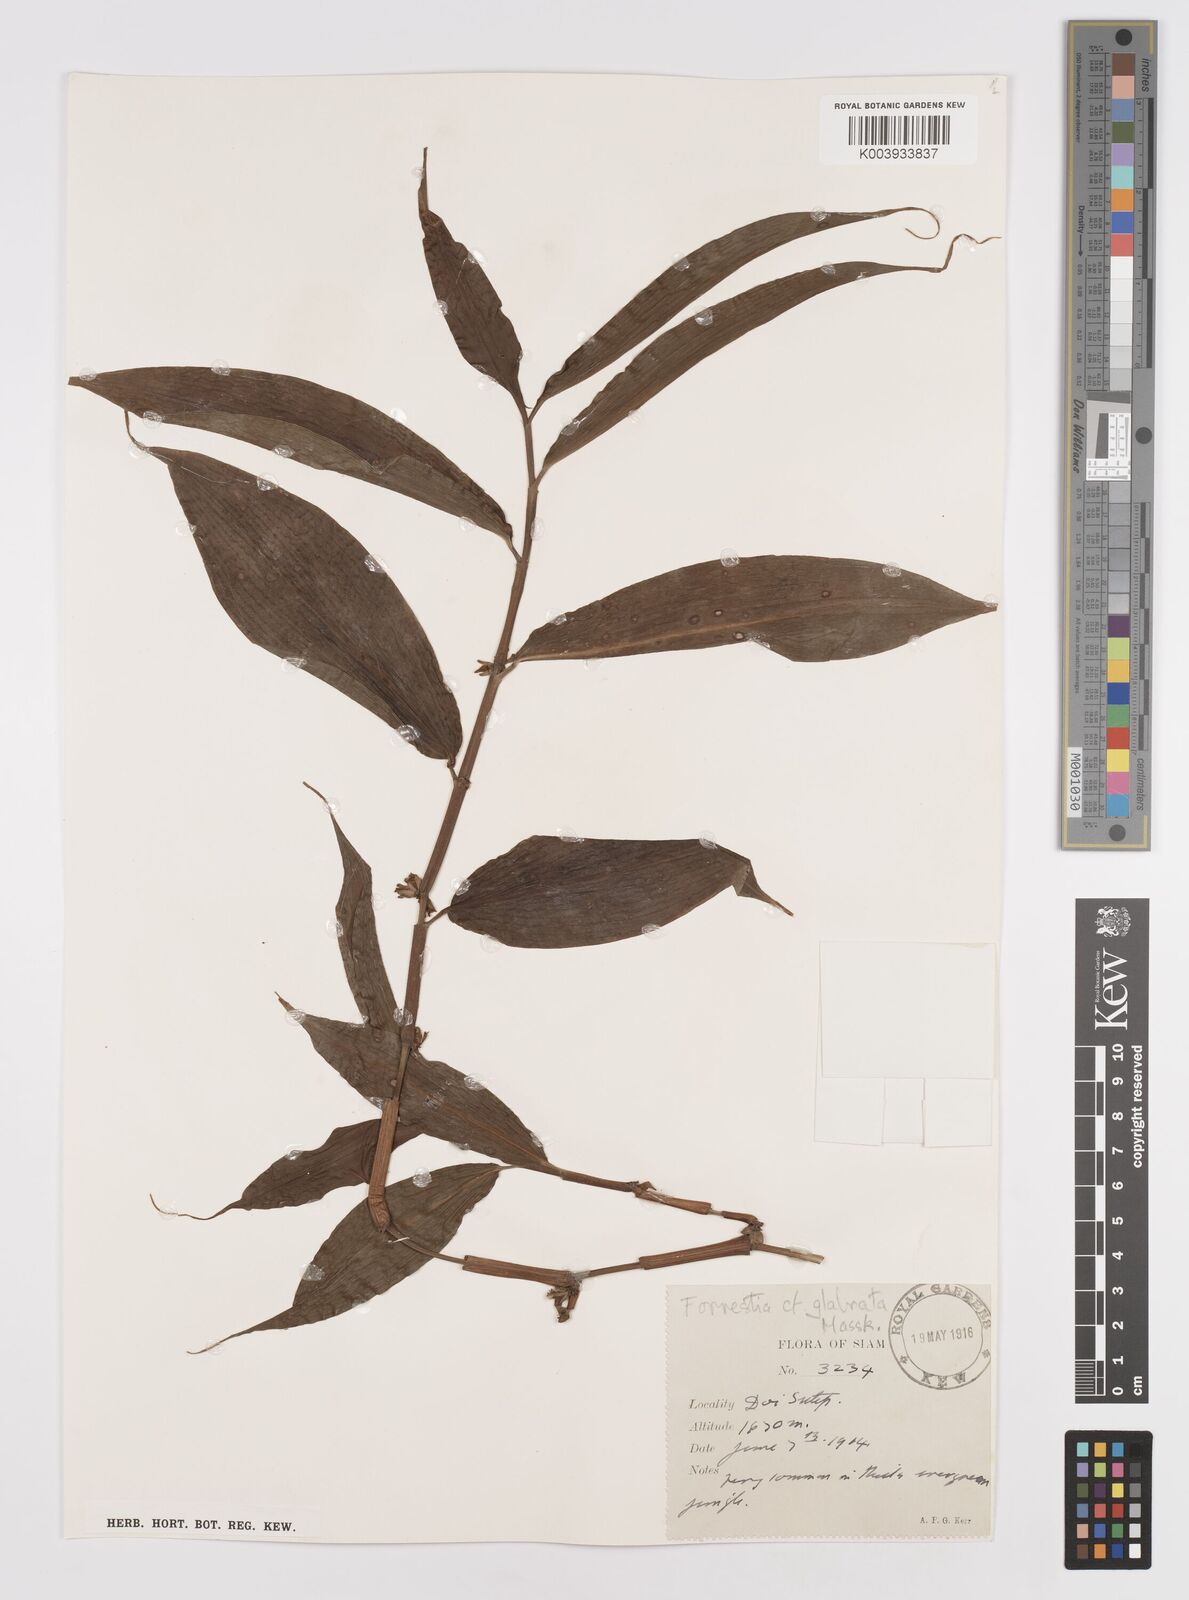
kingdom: Plantae
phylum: Tracheophyta
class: Liliopsida
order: Commelinales
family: Commelinaceae
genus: Amischotolype
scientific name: Amischotolype glabrata
